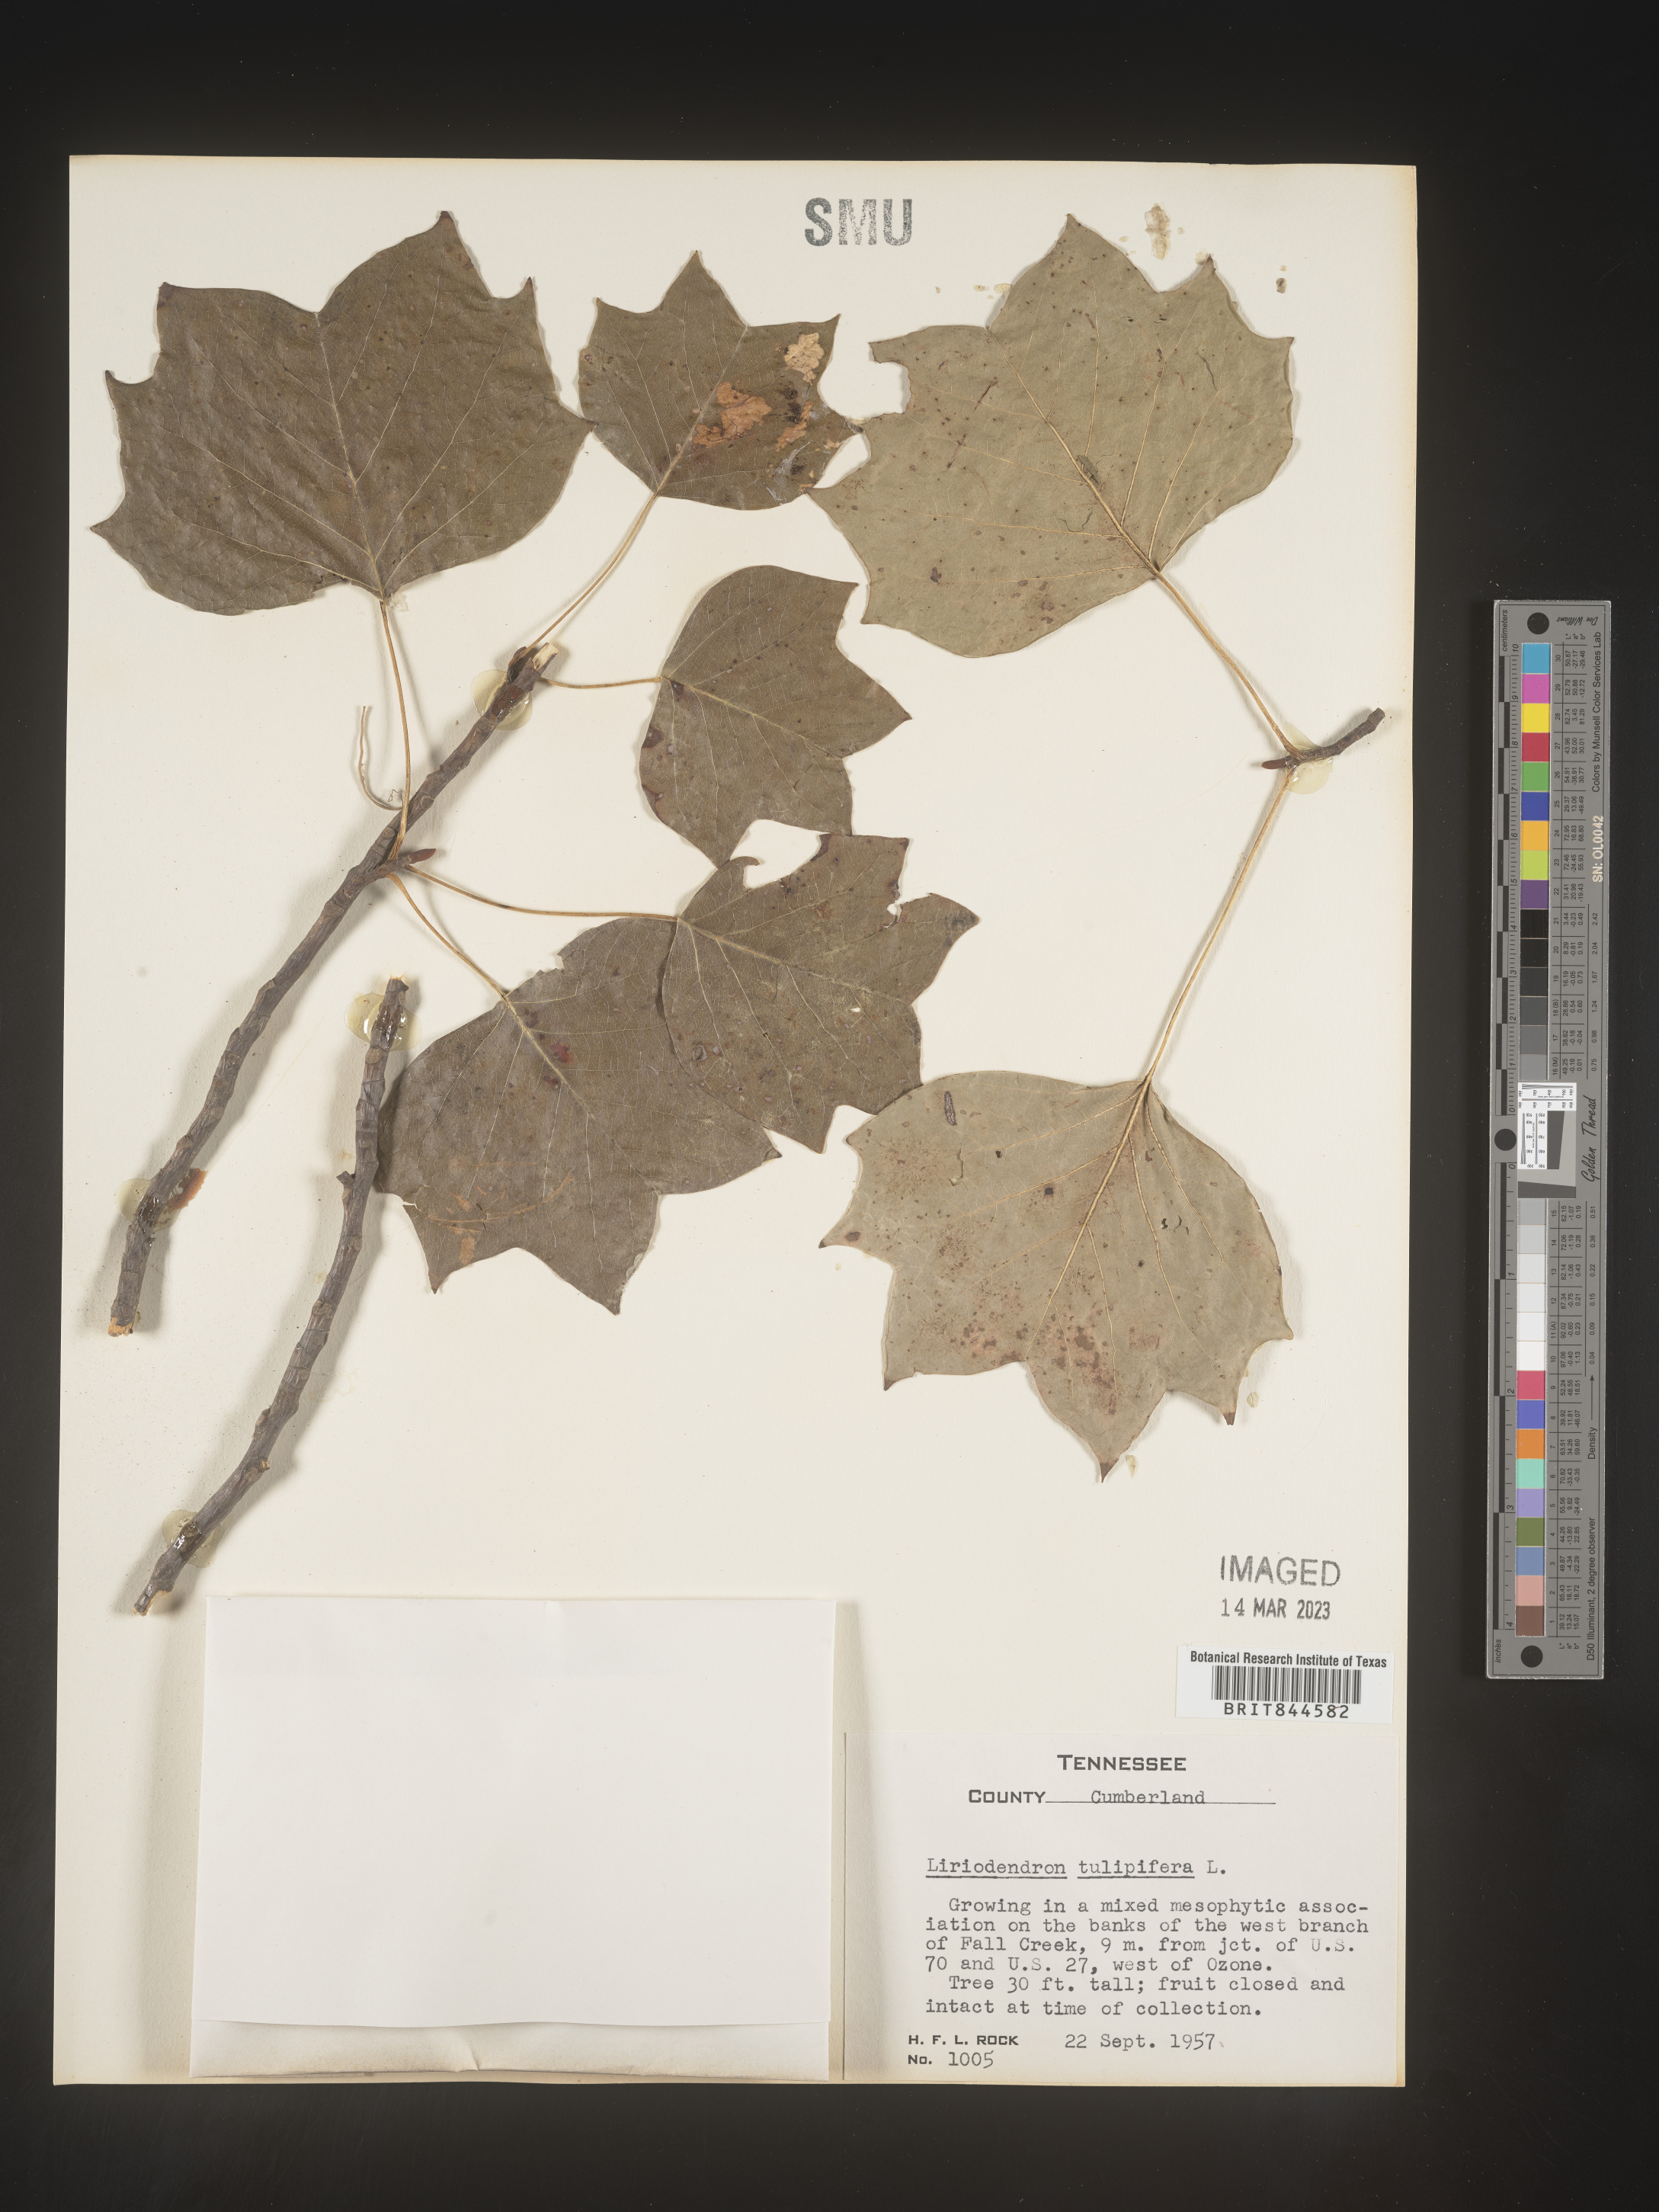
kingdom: Plantae
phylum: Tracheophyta
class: Magnoliopsida
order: Magnoliales
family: Magnoliaceae
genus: Liriodendron
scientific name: Liriodendron tulipifera
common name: Tulip tree
